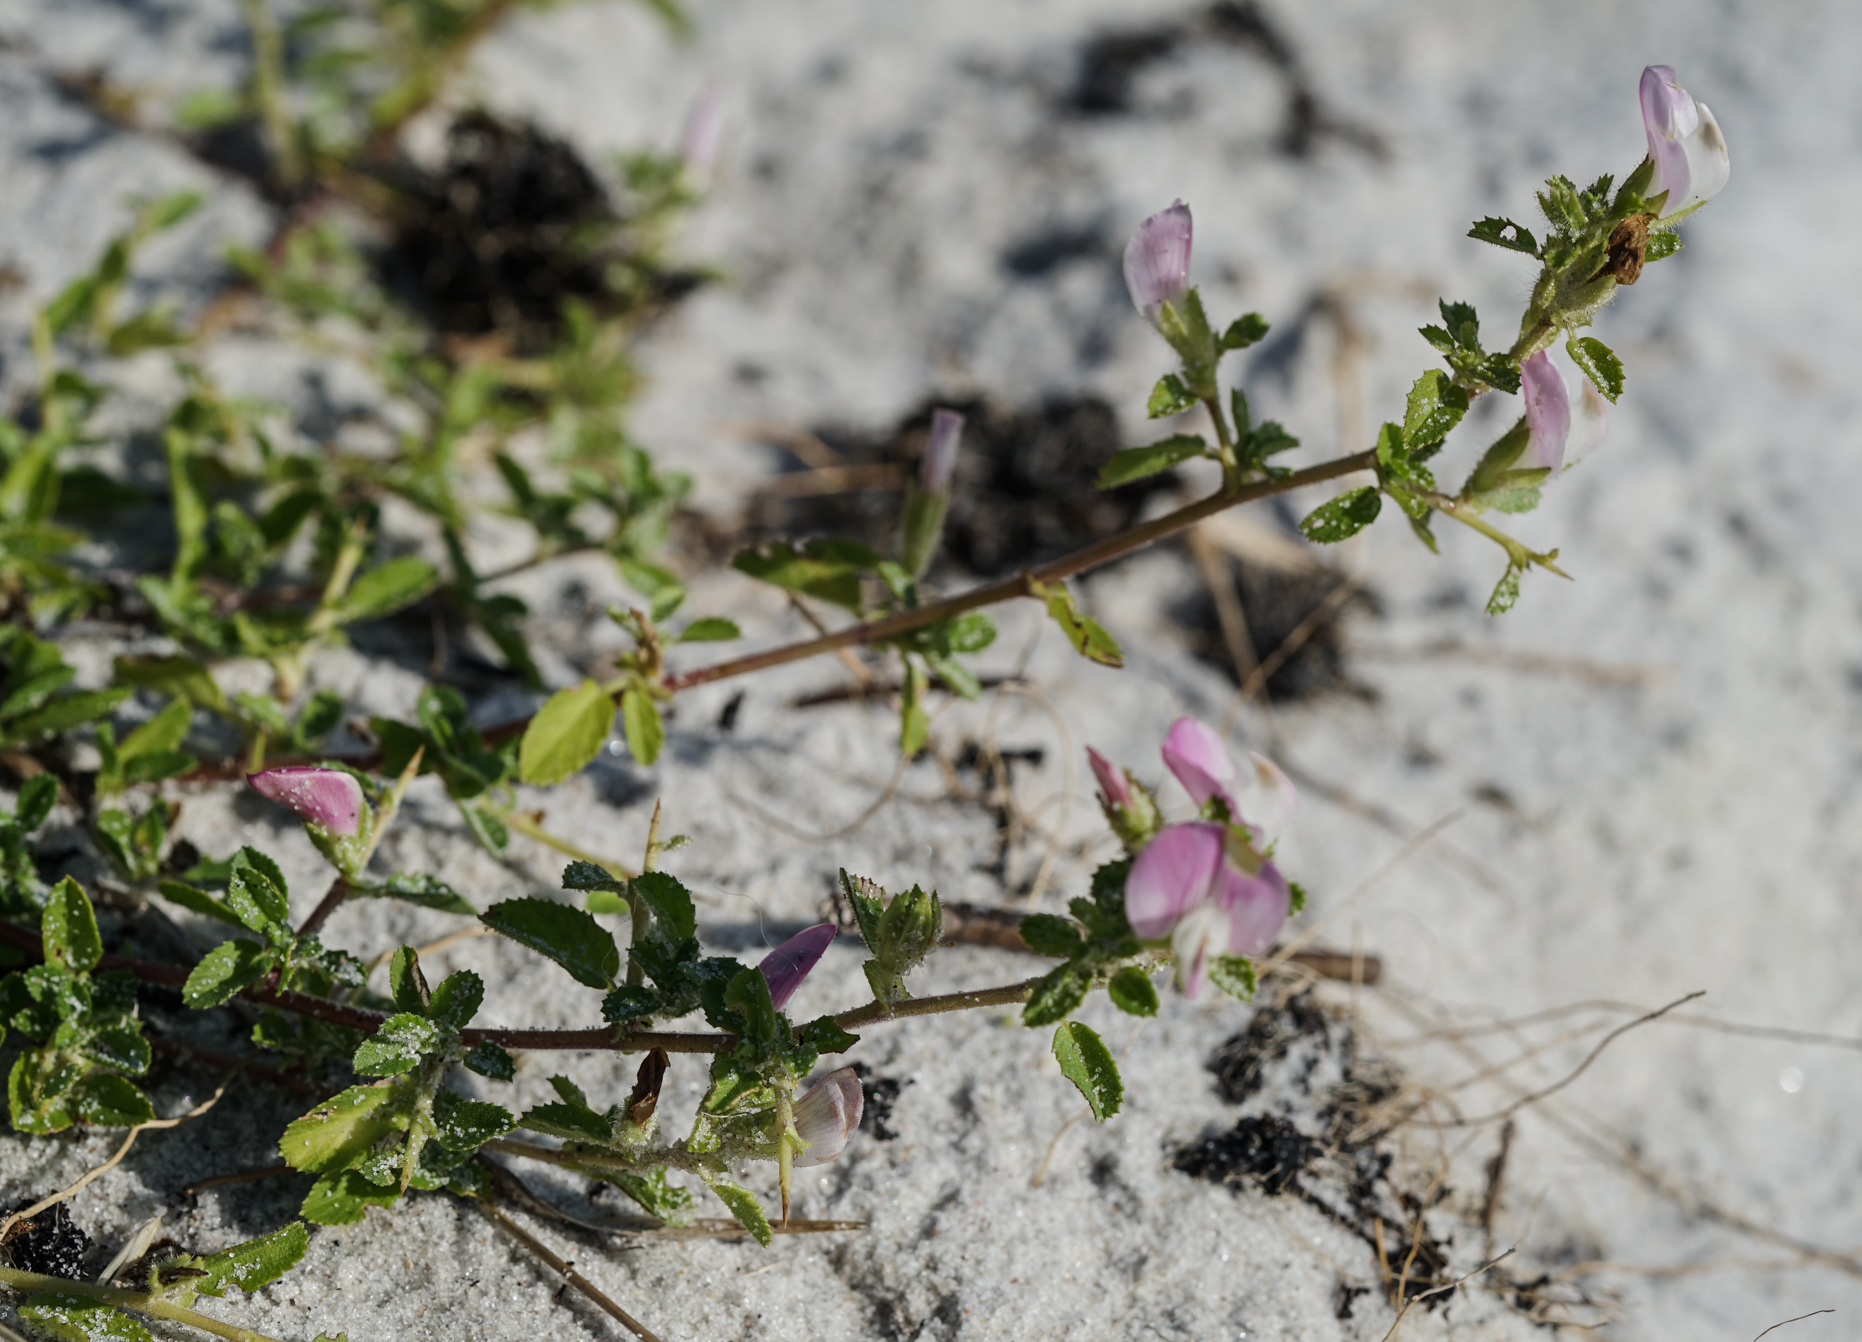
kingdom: Plantae
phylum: Tracheophyta
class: Magnoliopsida
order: Fabales
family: Fabaceae
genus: Ononis
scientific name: Ononis spinosa
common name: Spiny restharrow
